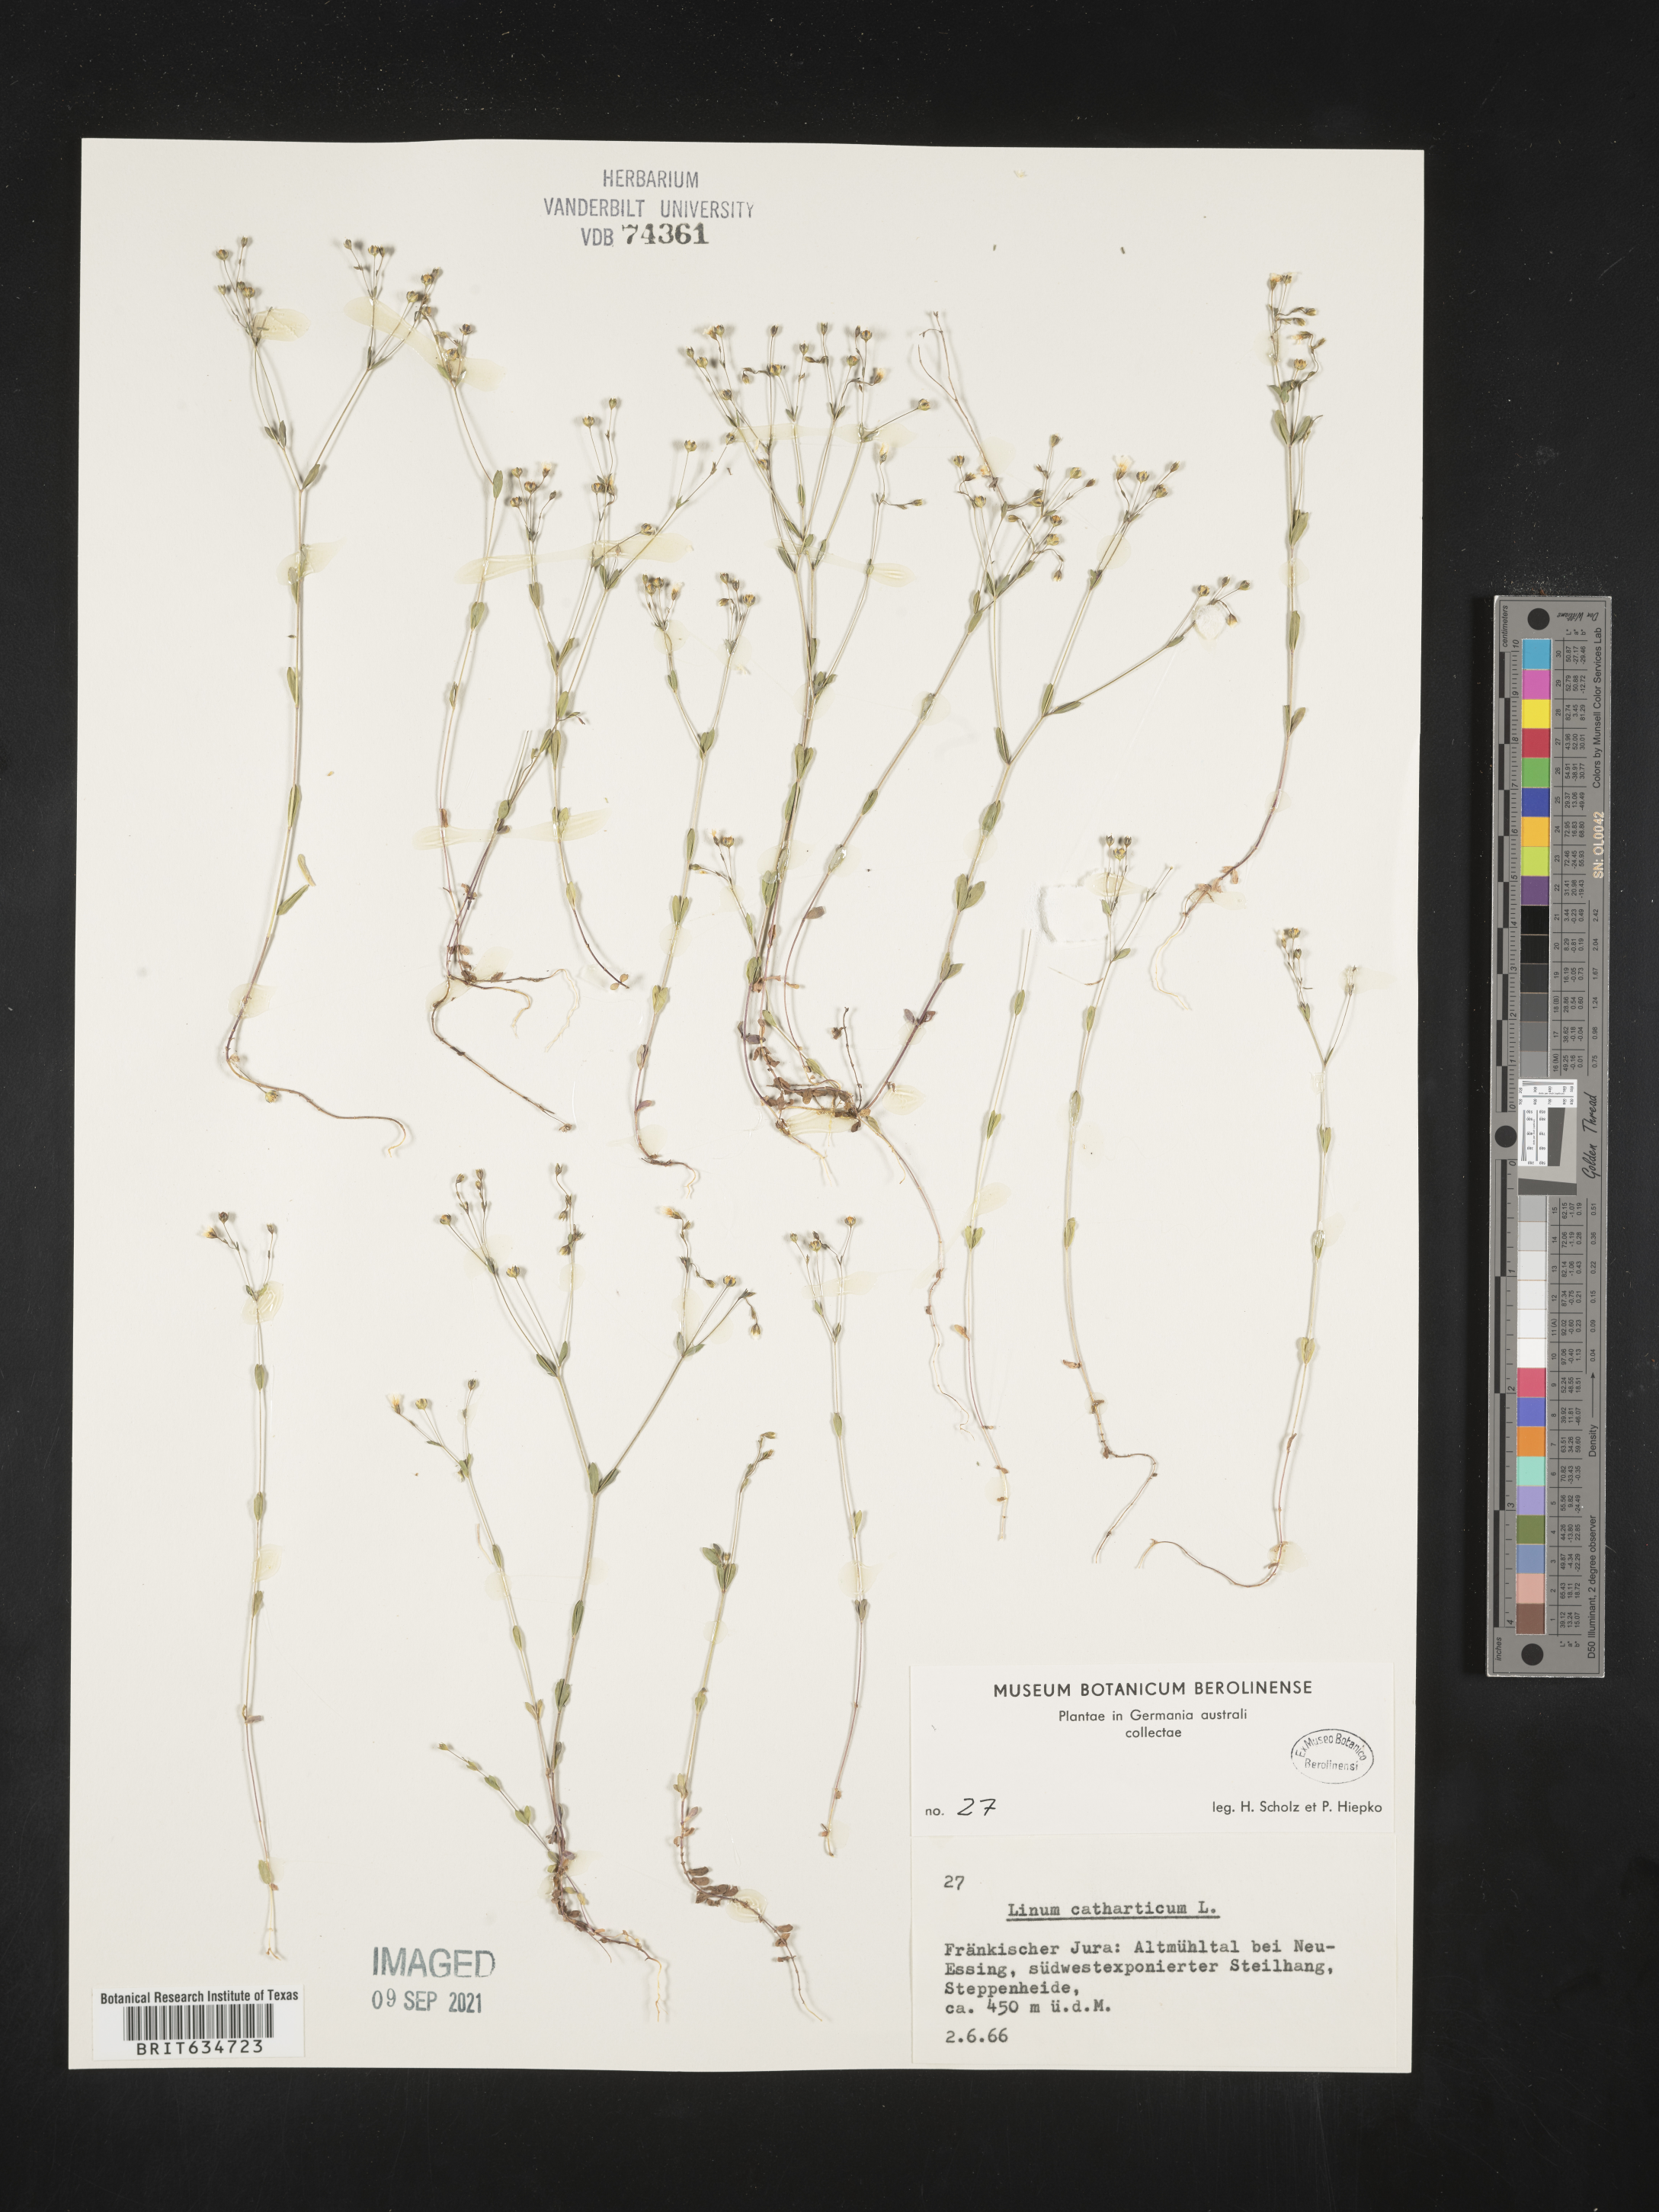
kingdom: Plantae
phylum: Tracheophyta
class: Magnoliopsida
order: Malpighiales
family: Linaceae
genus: Linum
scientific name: Linum
